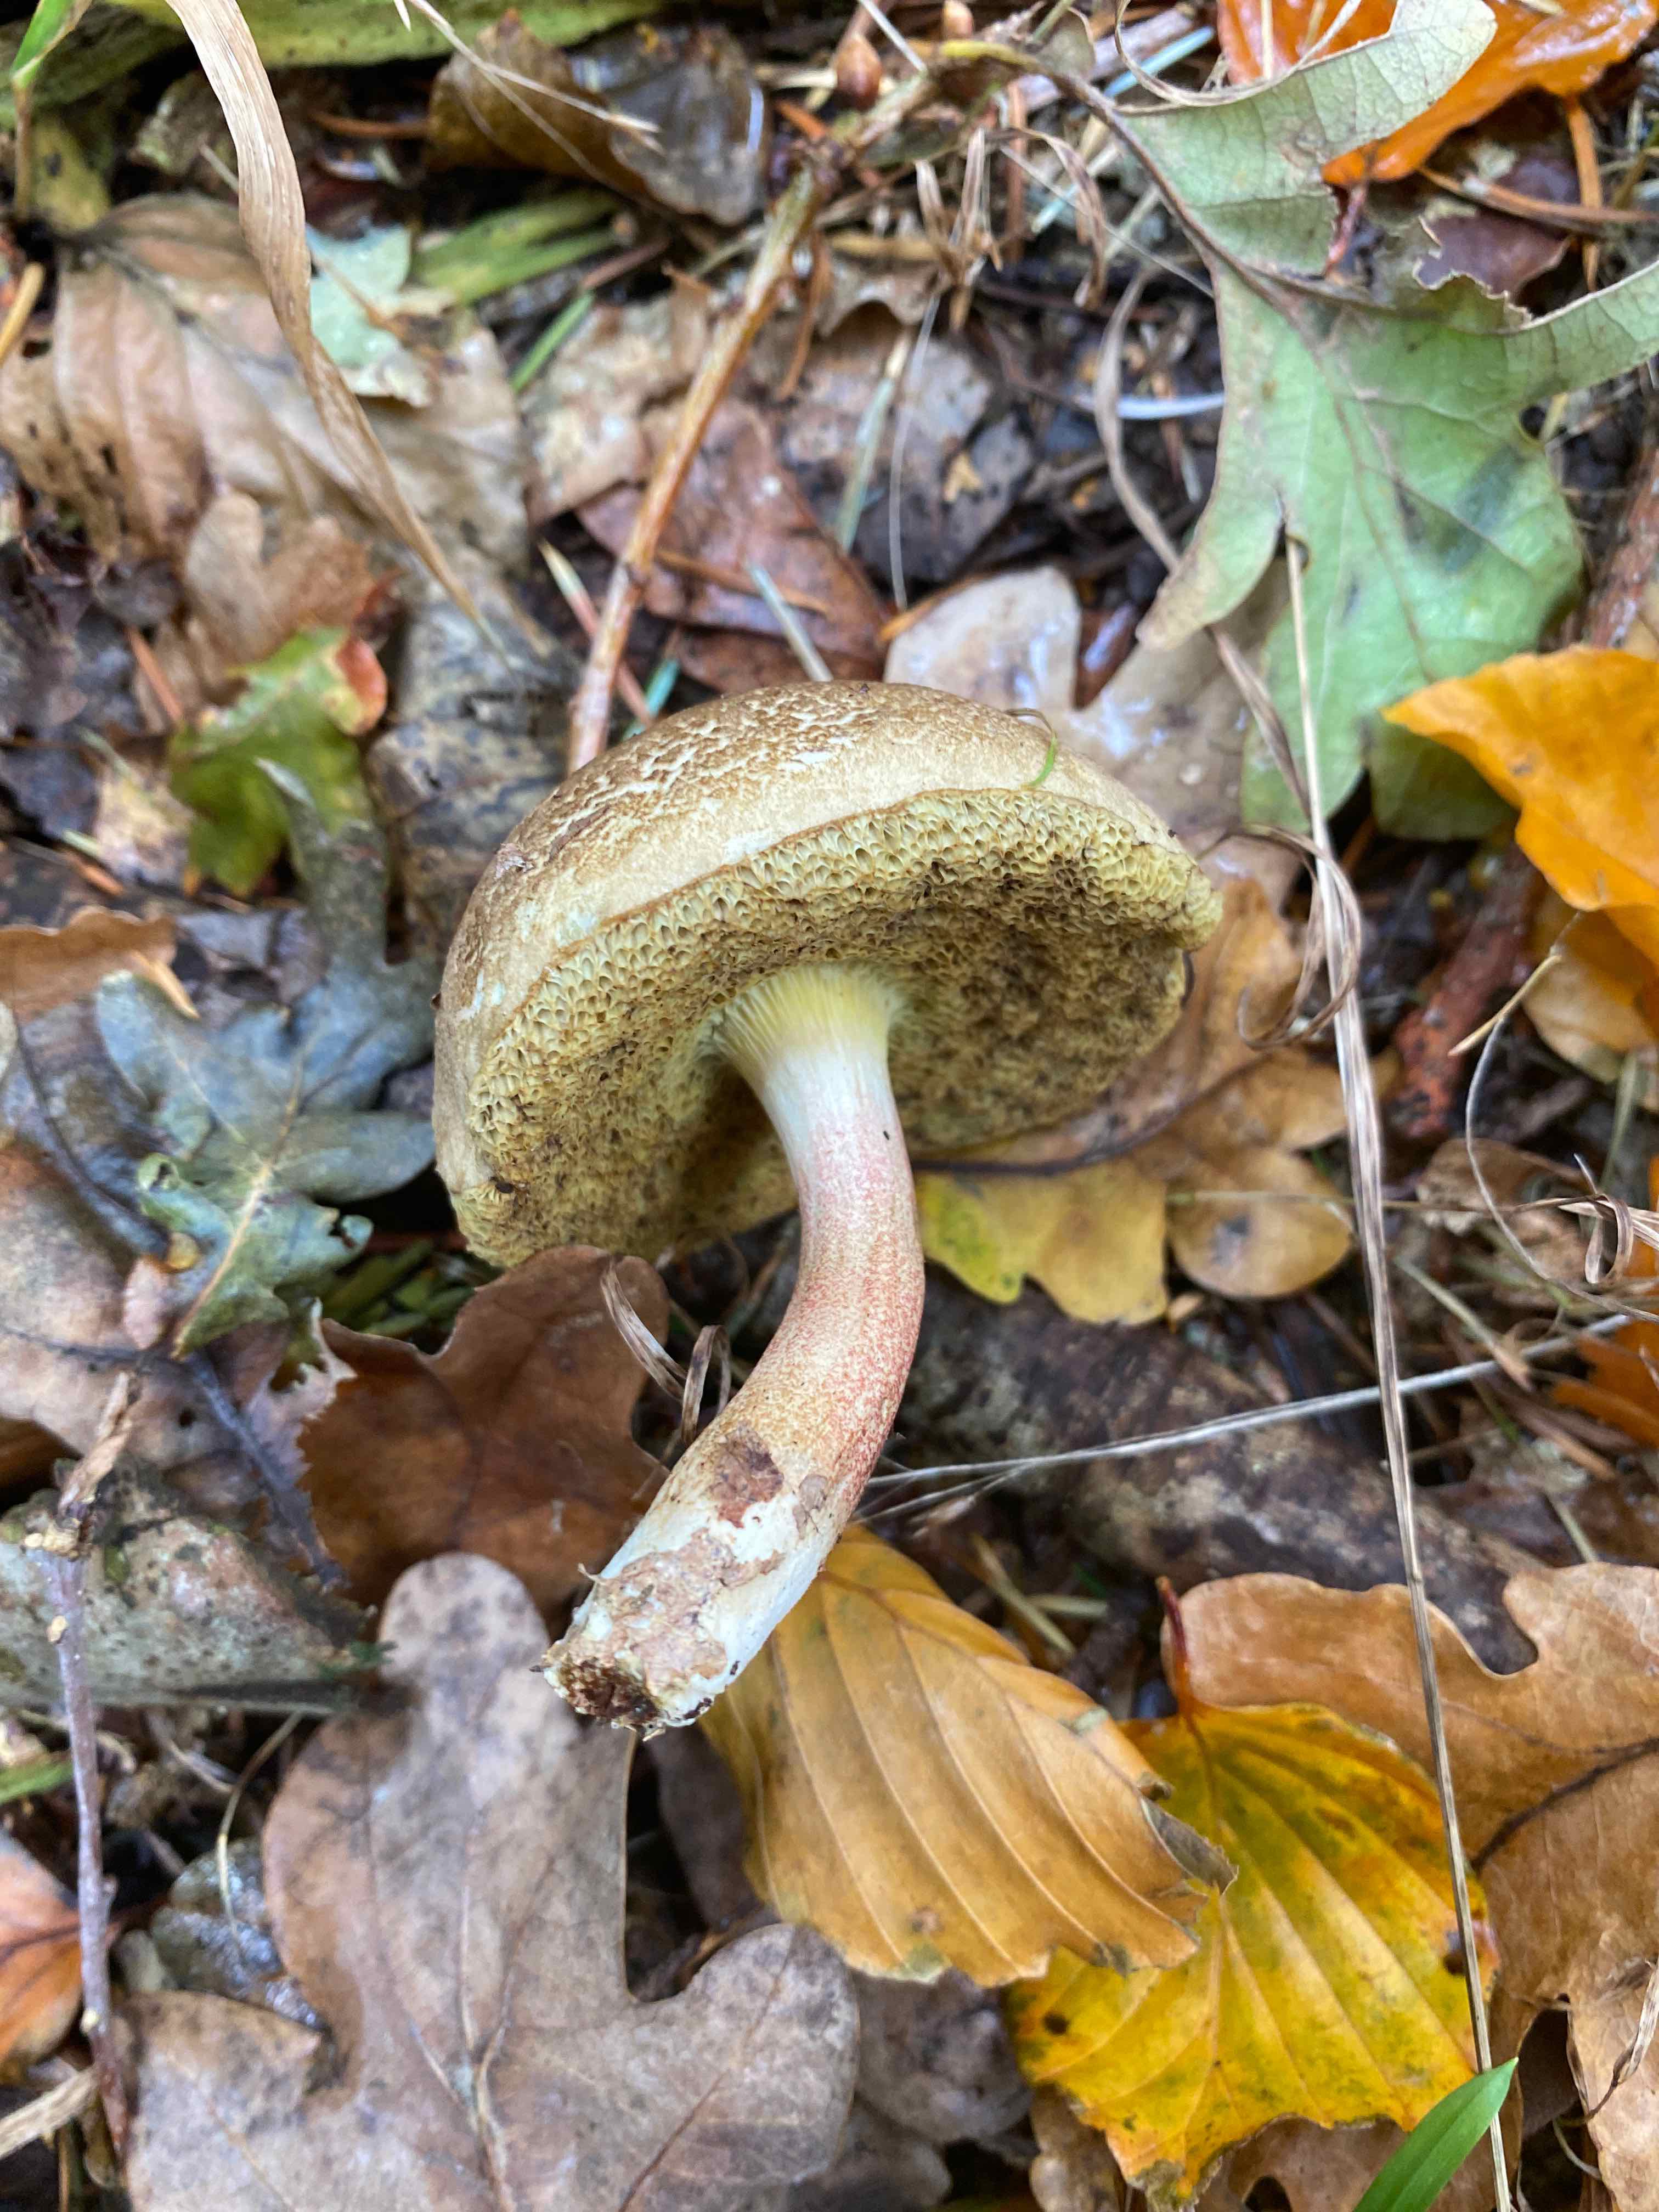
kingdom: Fungi
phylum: Basidiomycota
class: Agaricomycetes
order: Boletales
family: Boletaceae
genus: Xerocomellus
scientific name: Xerocomellus
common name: dværgrørhat
